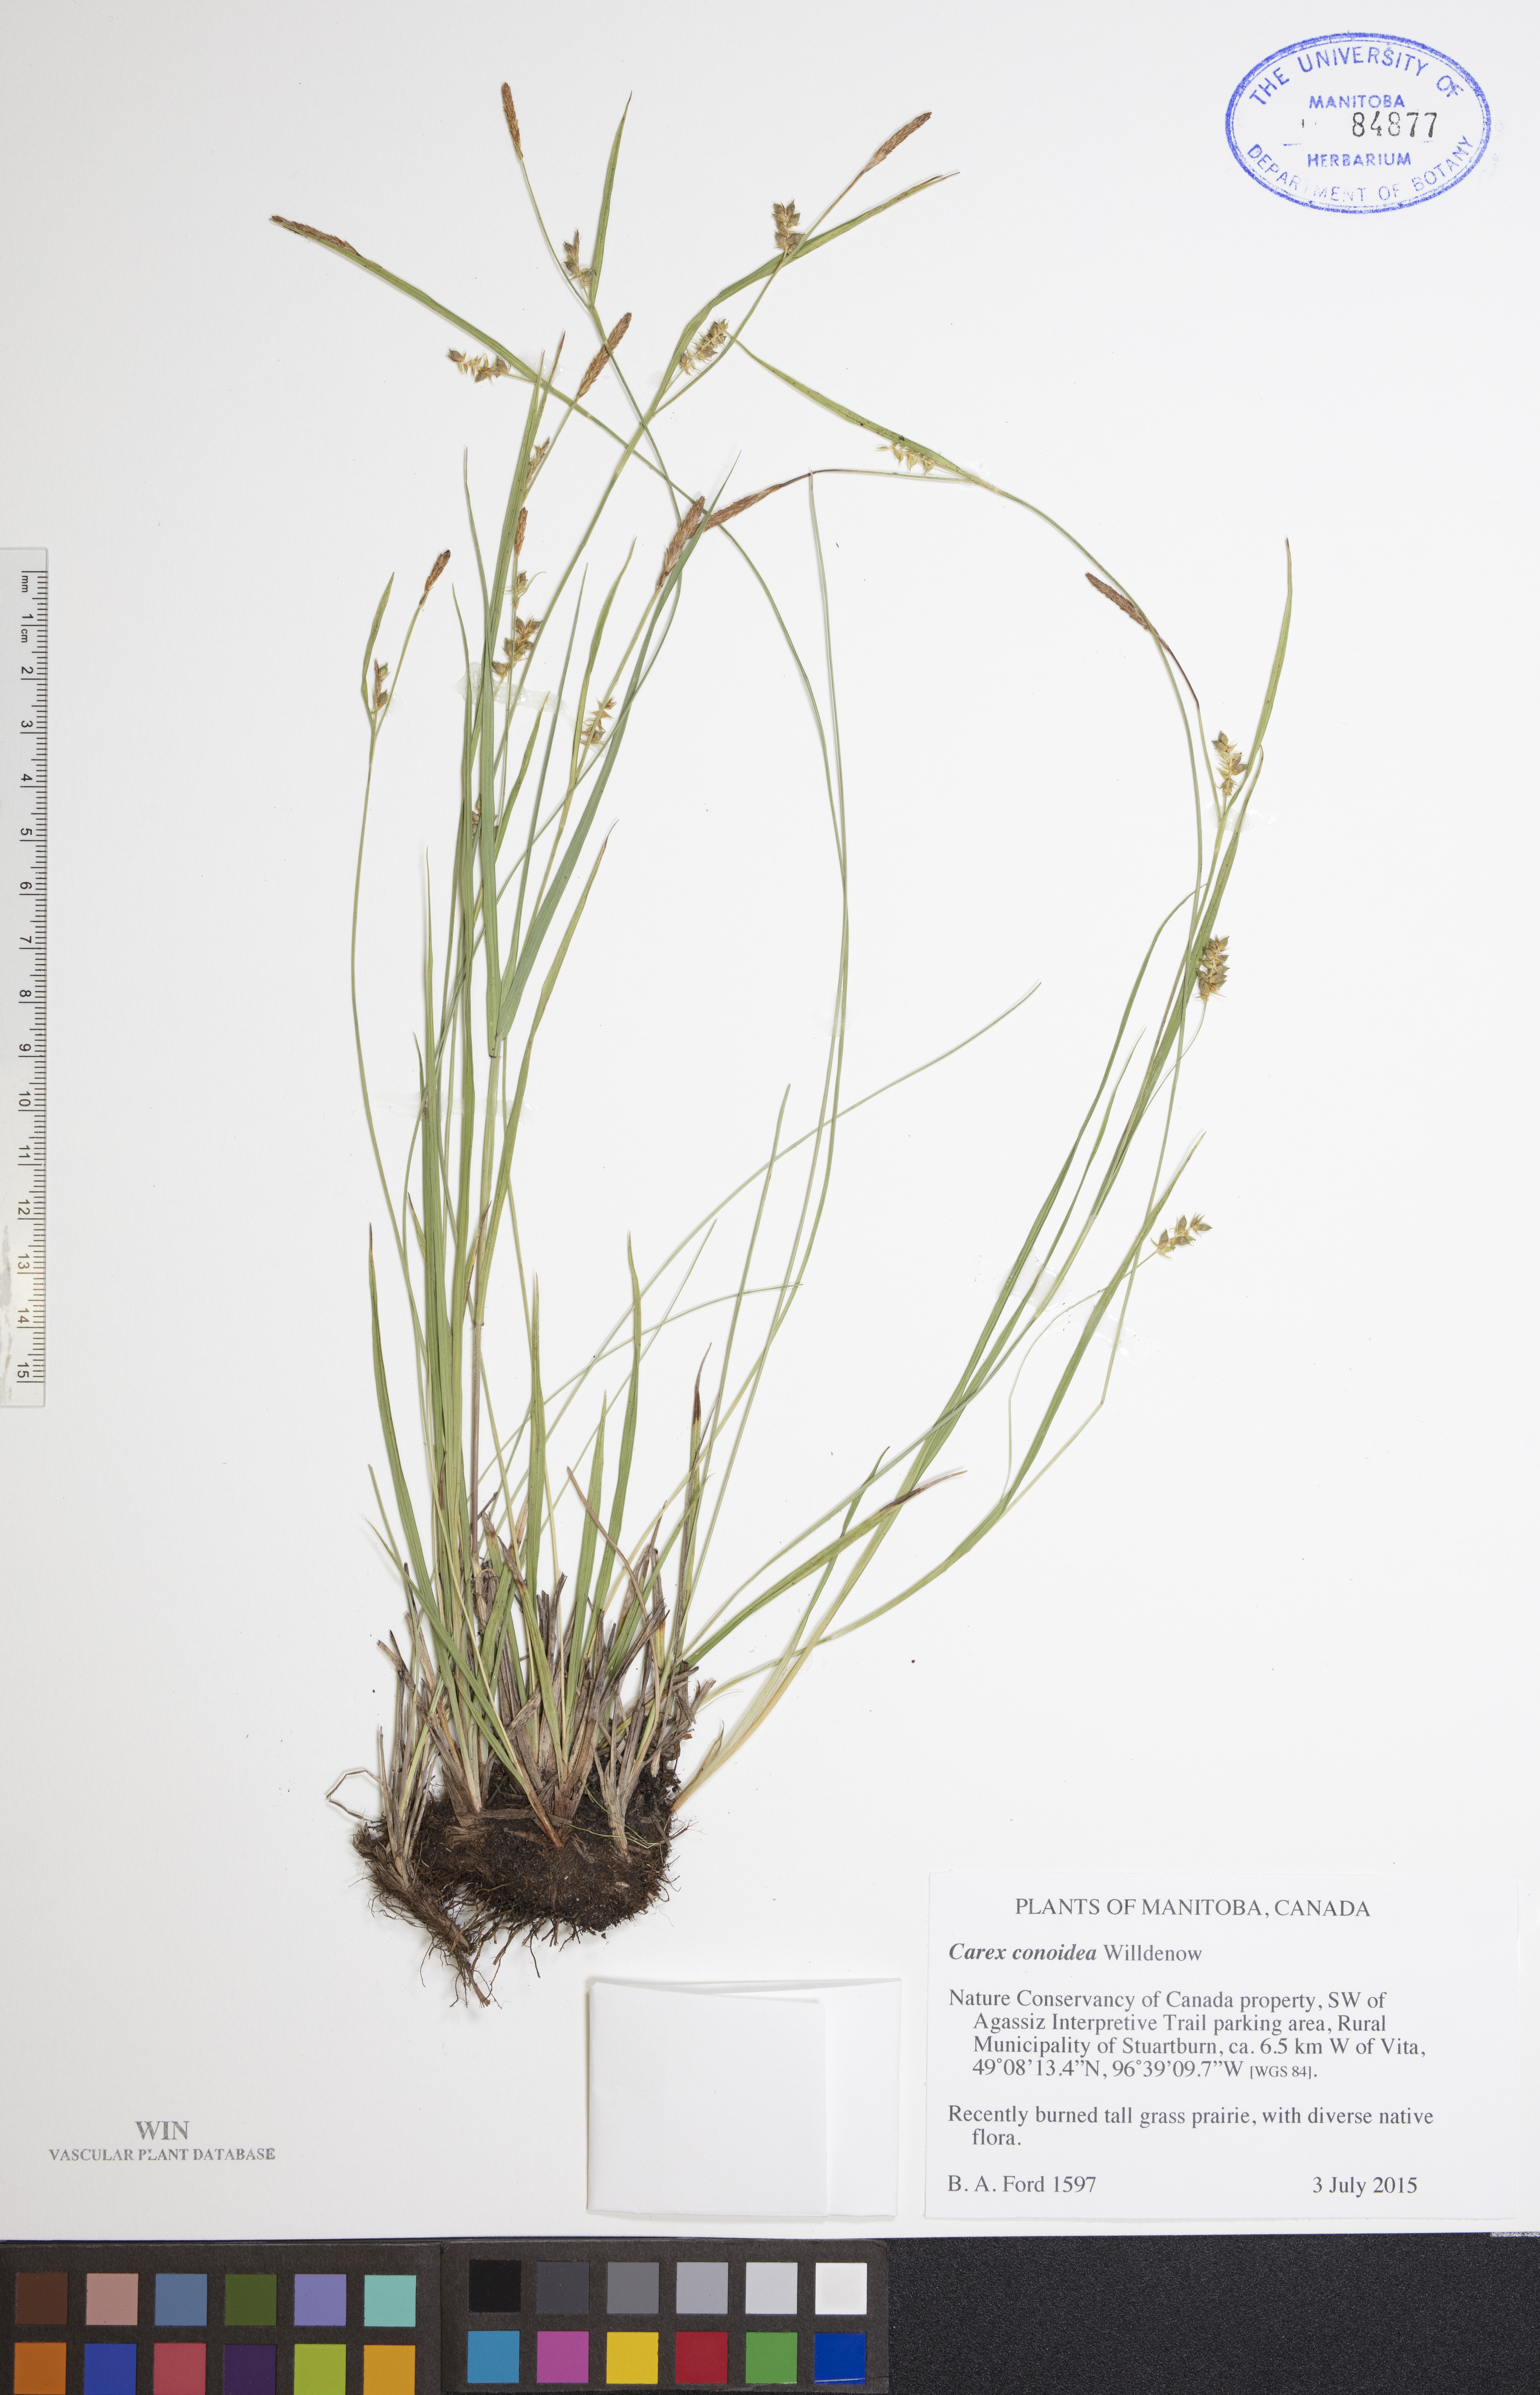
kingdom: Plantae
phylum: Tracheophyta
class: Liliopsida
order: Poales
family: Cyperaceae
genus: Carex
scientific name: Carex conoidea
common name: Cone shaped sedge
